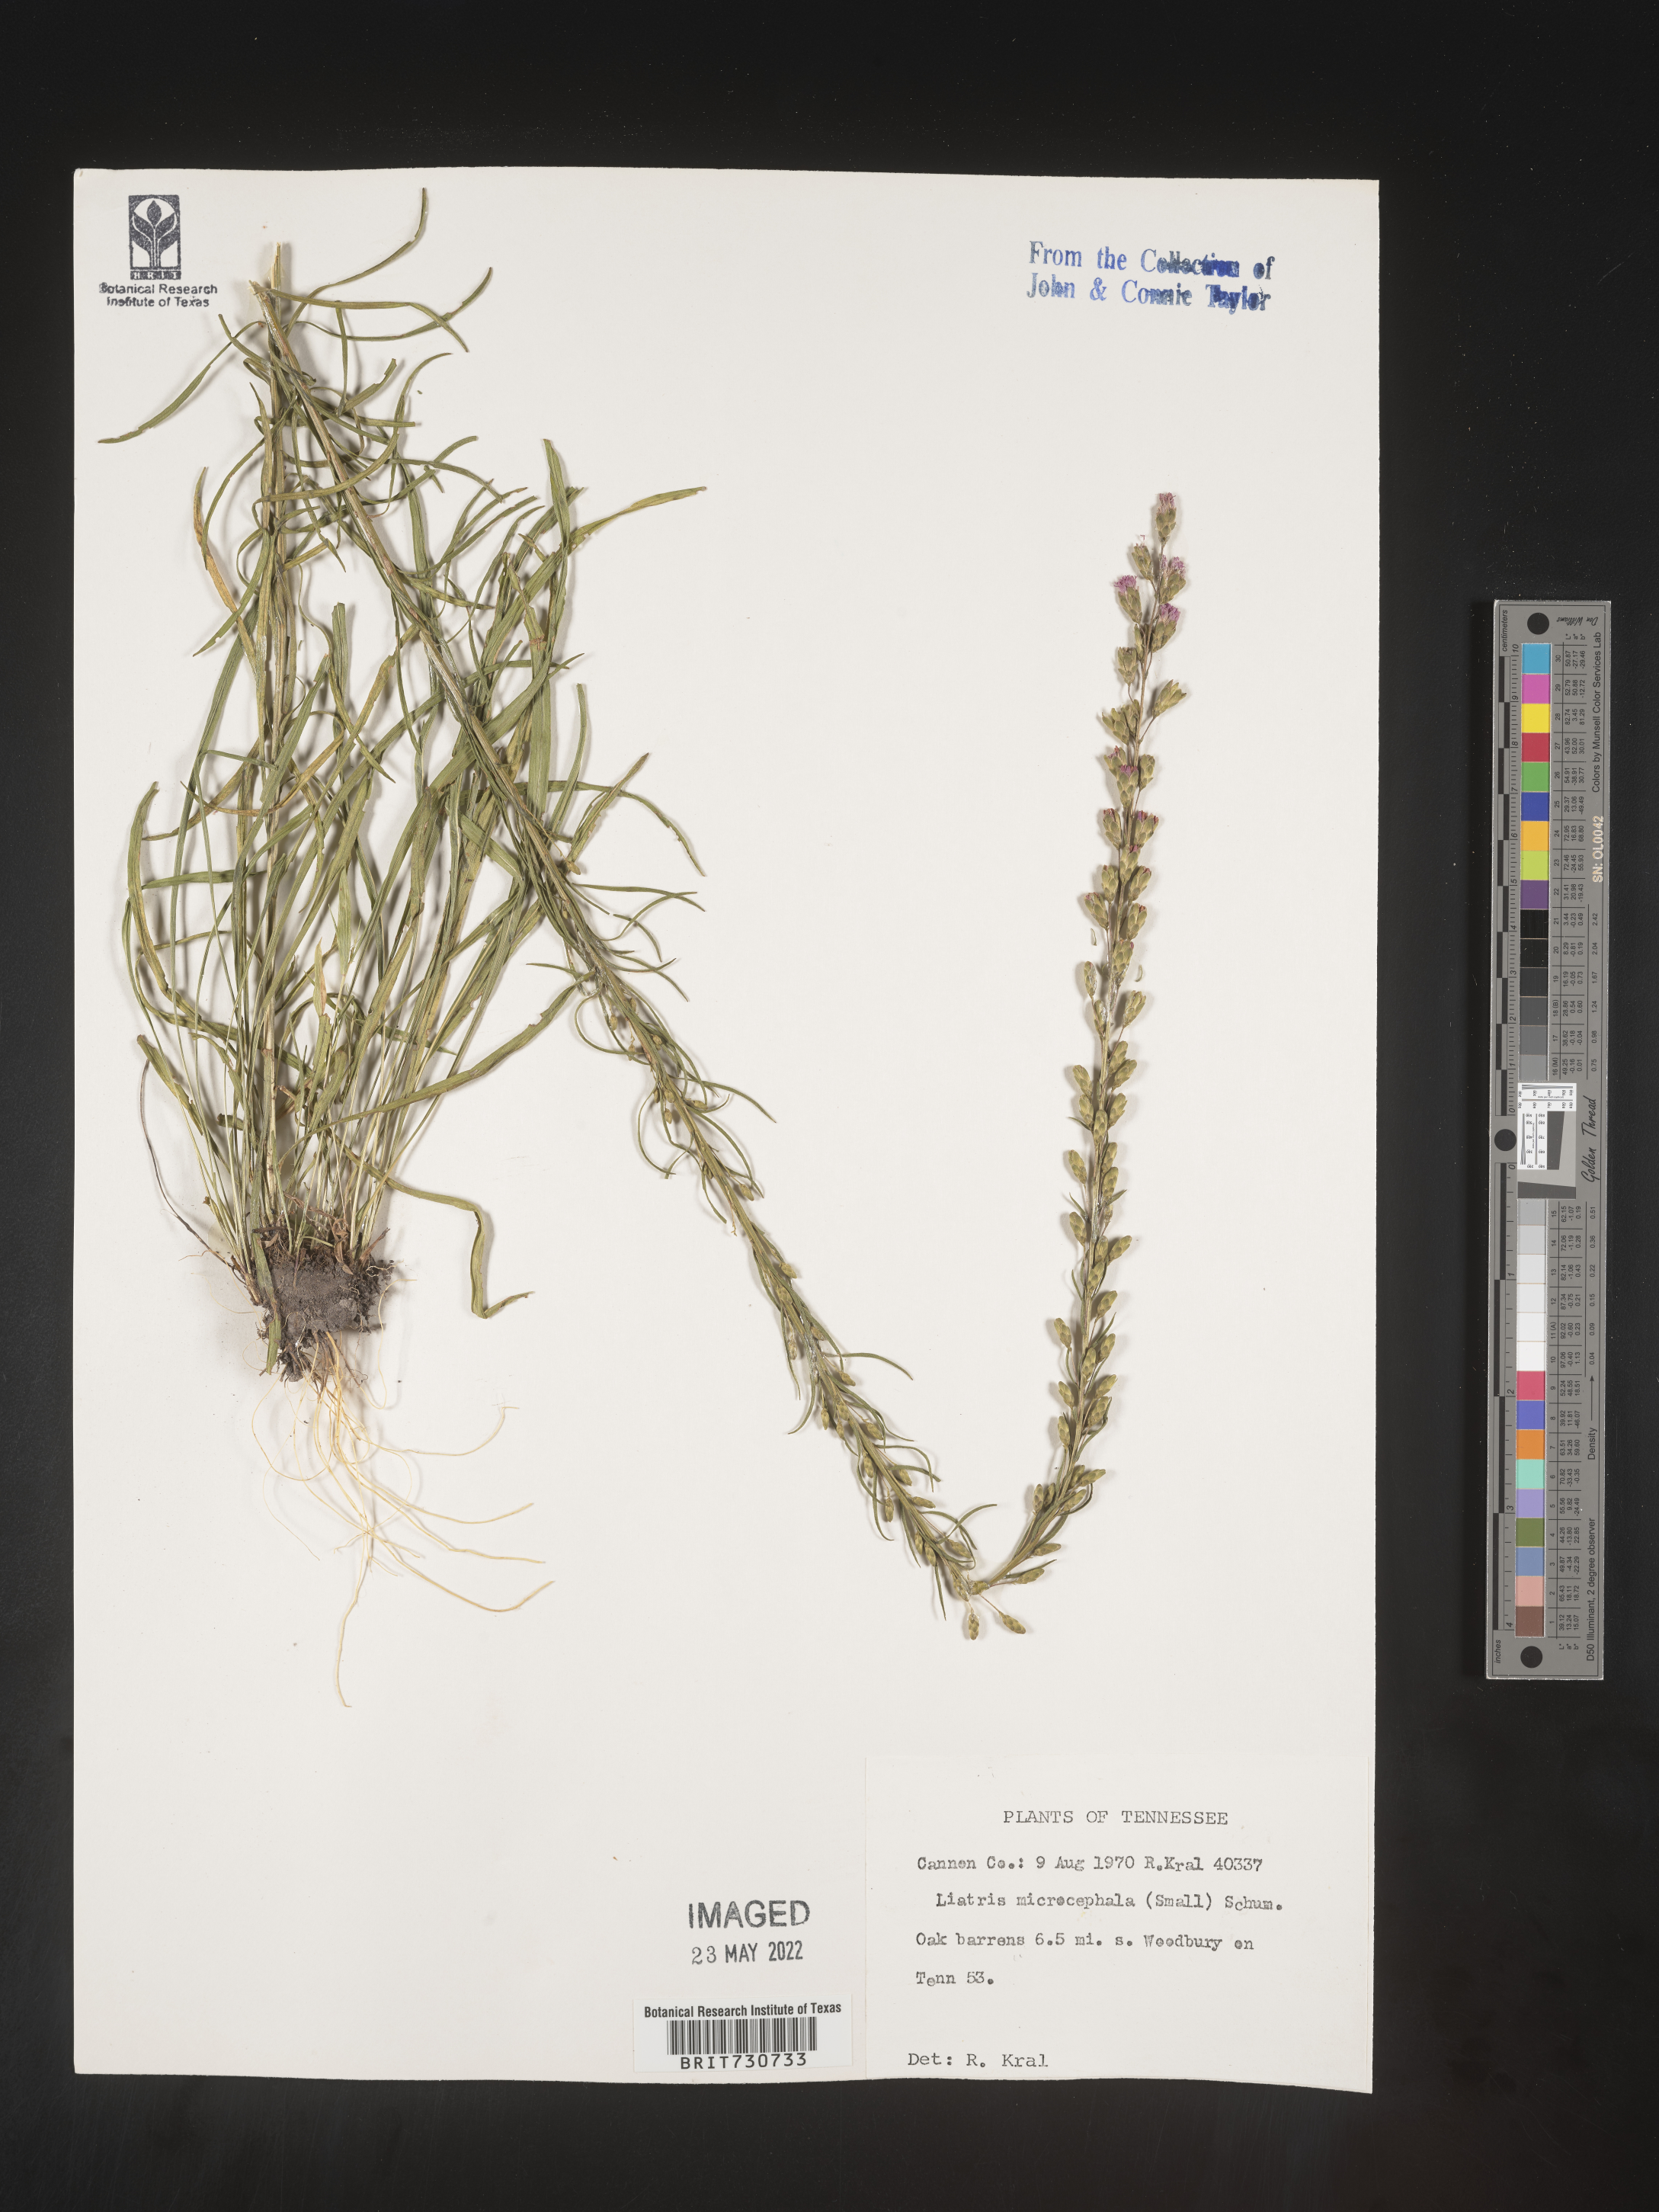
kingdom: Plantae
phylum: Tracheophyta
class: Magnoliopsida
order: Asterales
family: Asteraceae
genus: Liatris
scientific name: Liatris microcephala
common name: Small-head gayfeather
